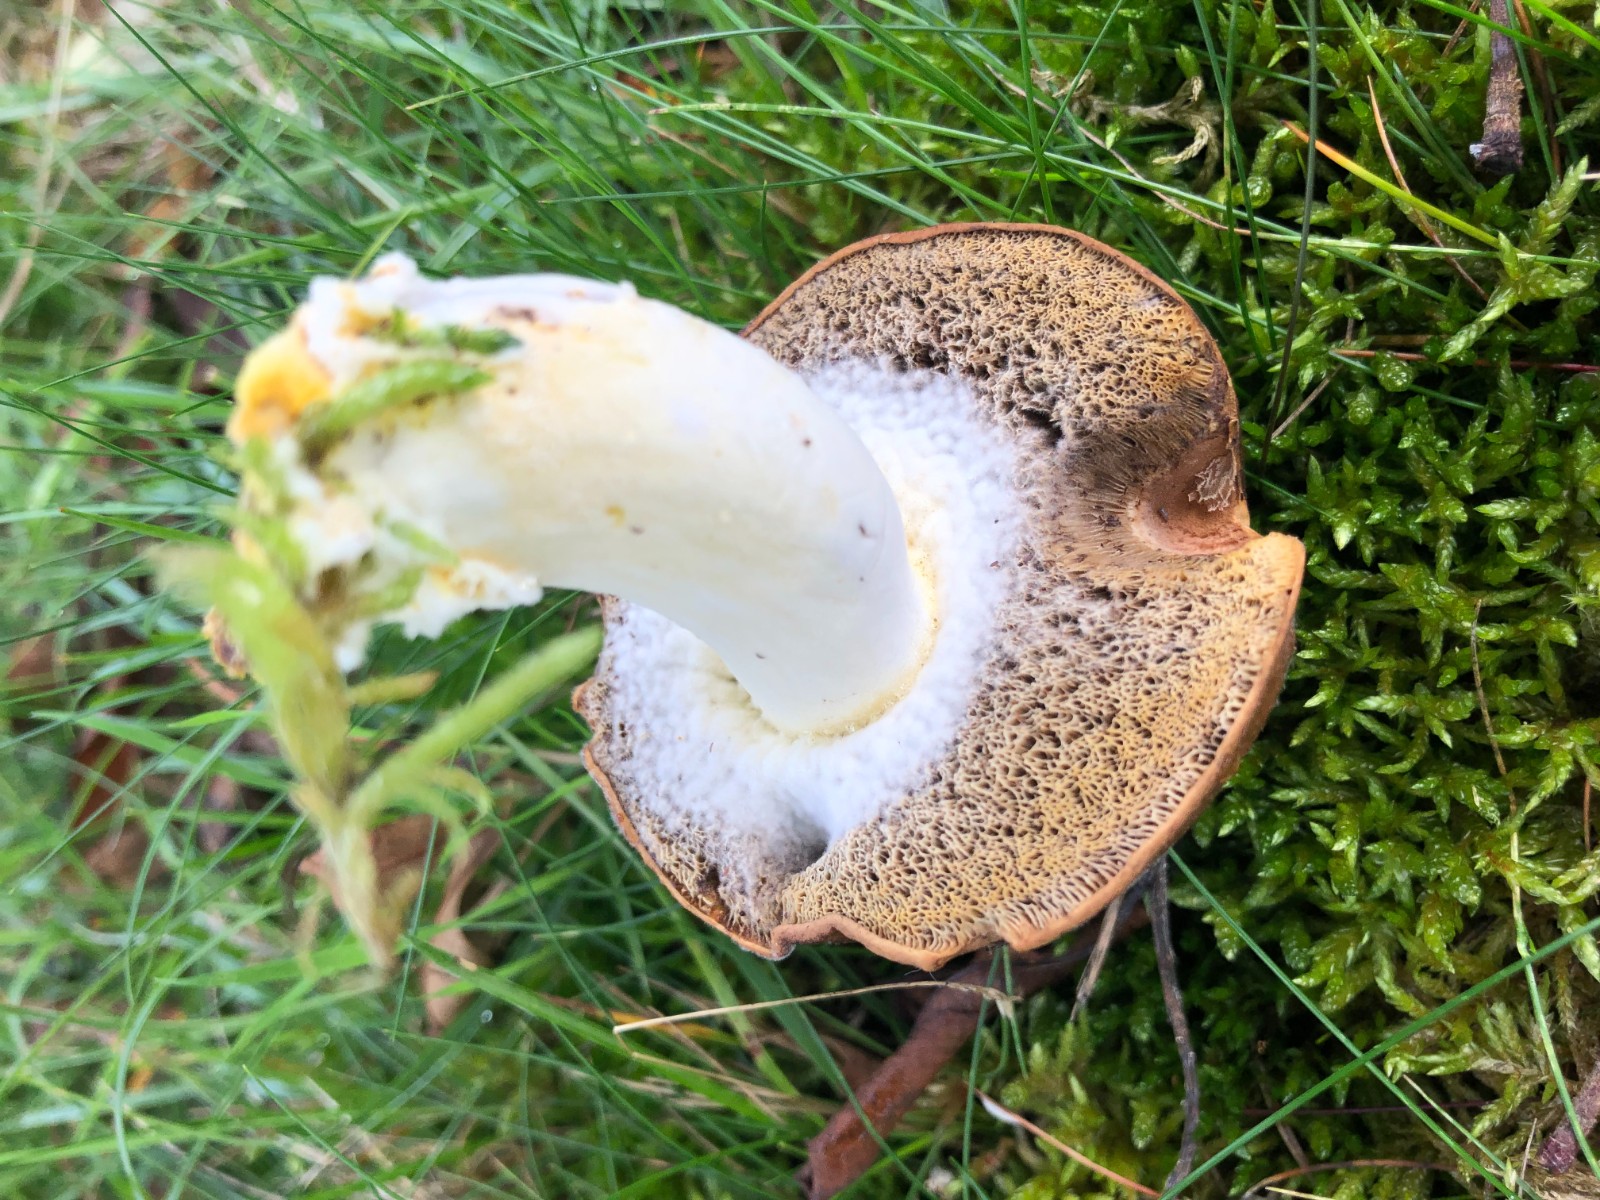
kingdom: Fungi
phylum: Ascomycota
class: Sordariomycetes
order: Hypocreales
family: Hypocreaceae
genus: Hypomyces
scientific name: Hypomyces microspermus
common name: dværgrørhat-snylteskorpe
